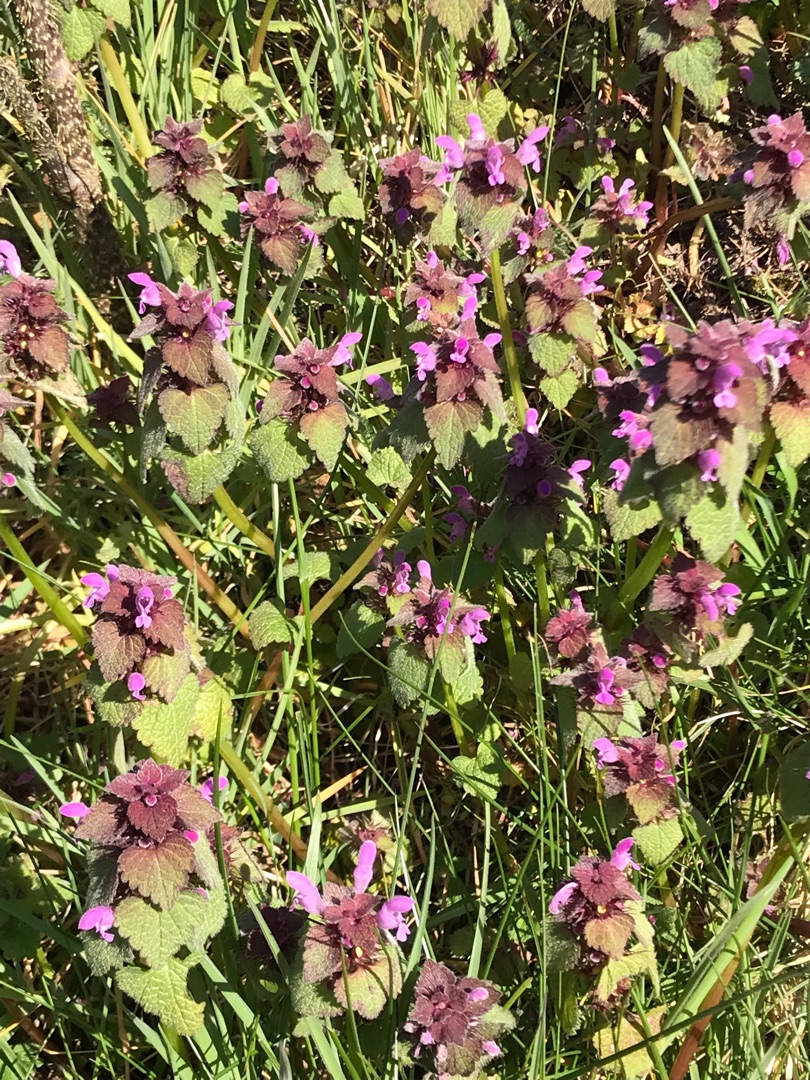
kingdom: Plantae
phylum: Tracheophyta
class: Magnoliopsida
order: Lamiales
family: Lamiaceae
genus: Lamium
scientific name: Lamium purpureum
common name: Rød tvetand
